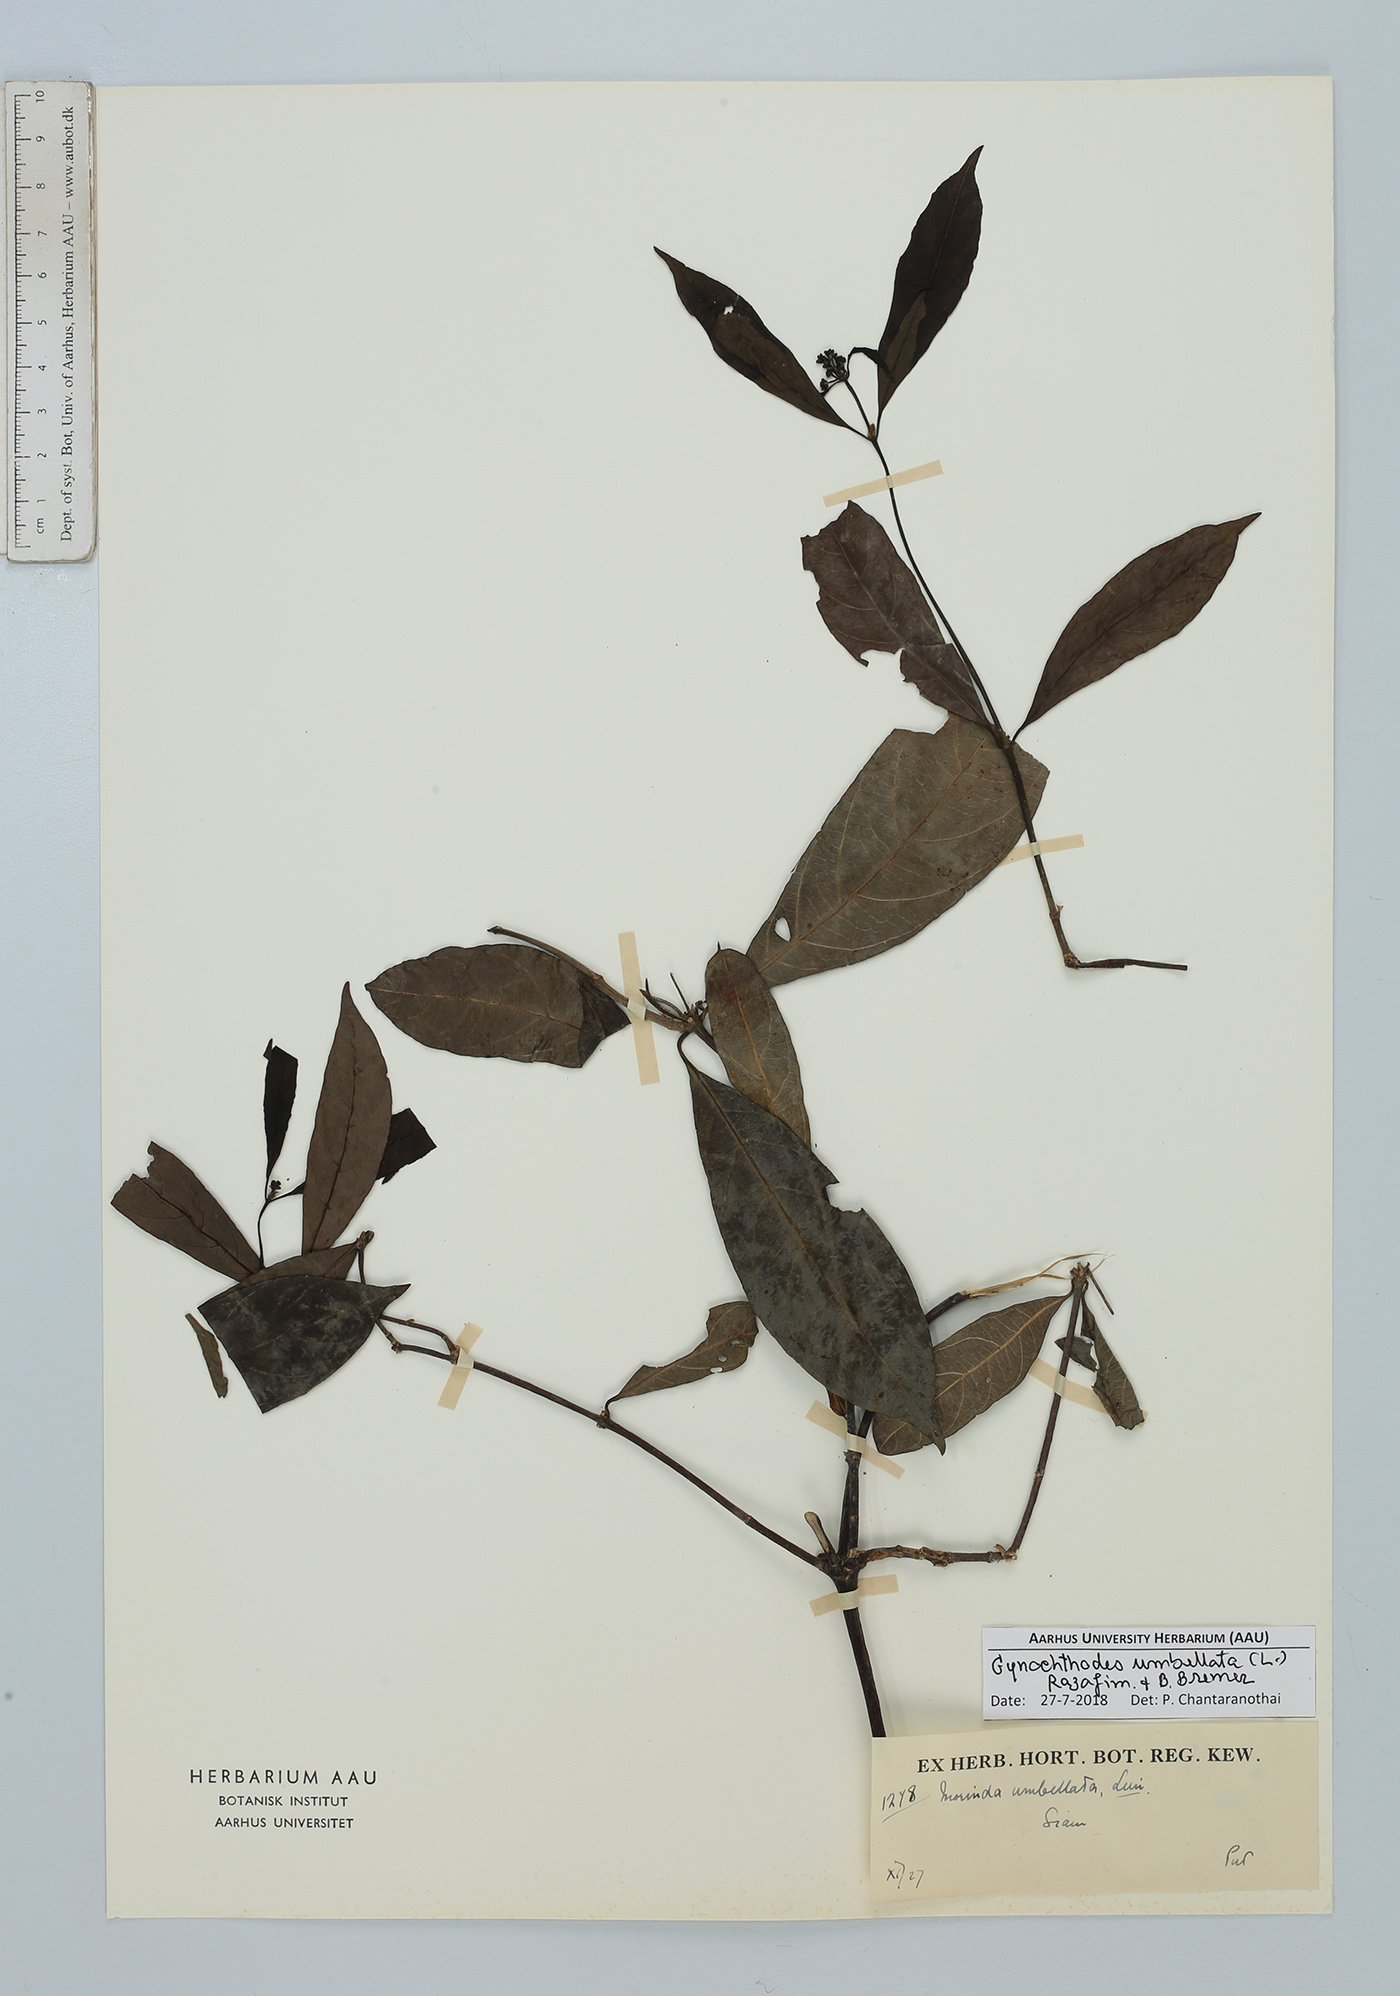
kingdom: Plantae
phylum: Tracheophyta
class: Magnoliopsida
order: Gentianales
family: Rubiaceae
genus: Gynochthodes
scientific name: Gynochthodes umbellata
